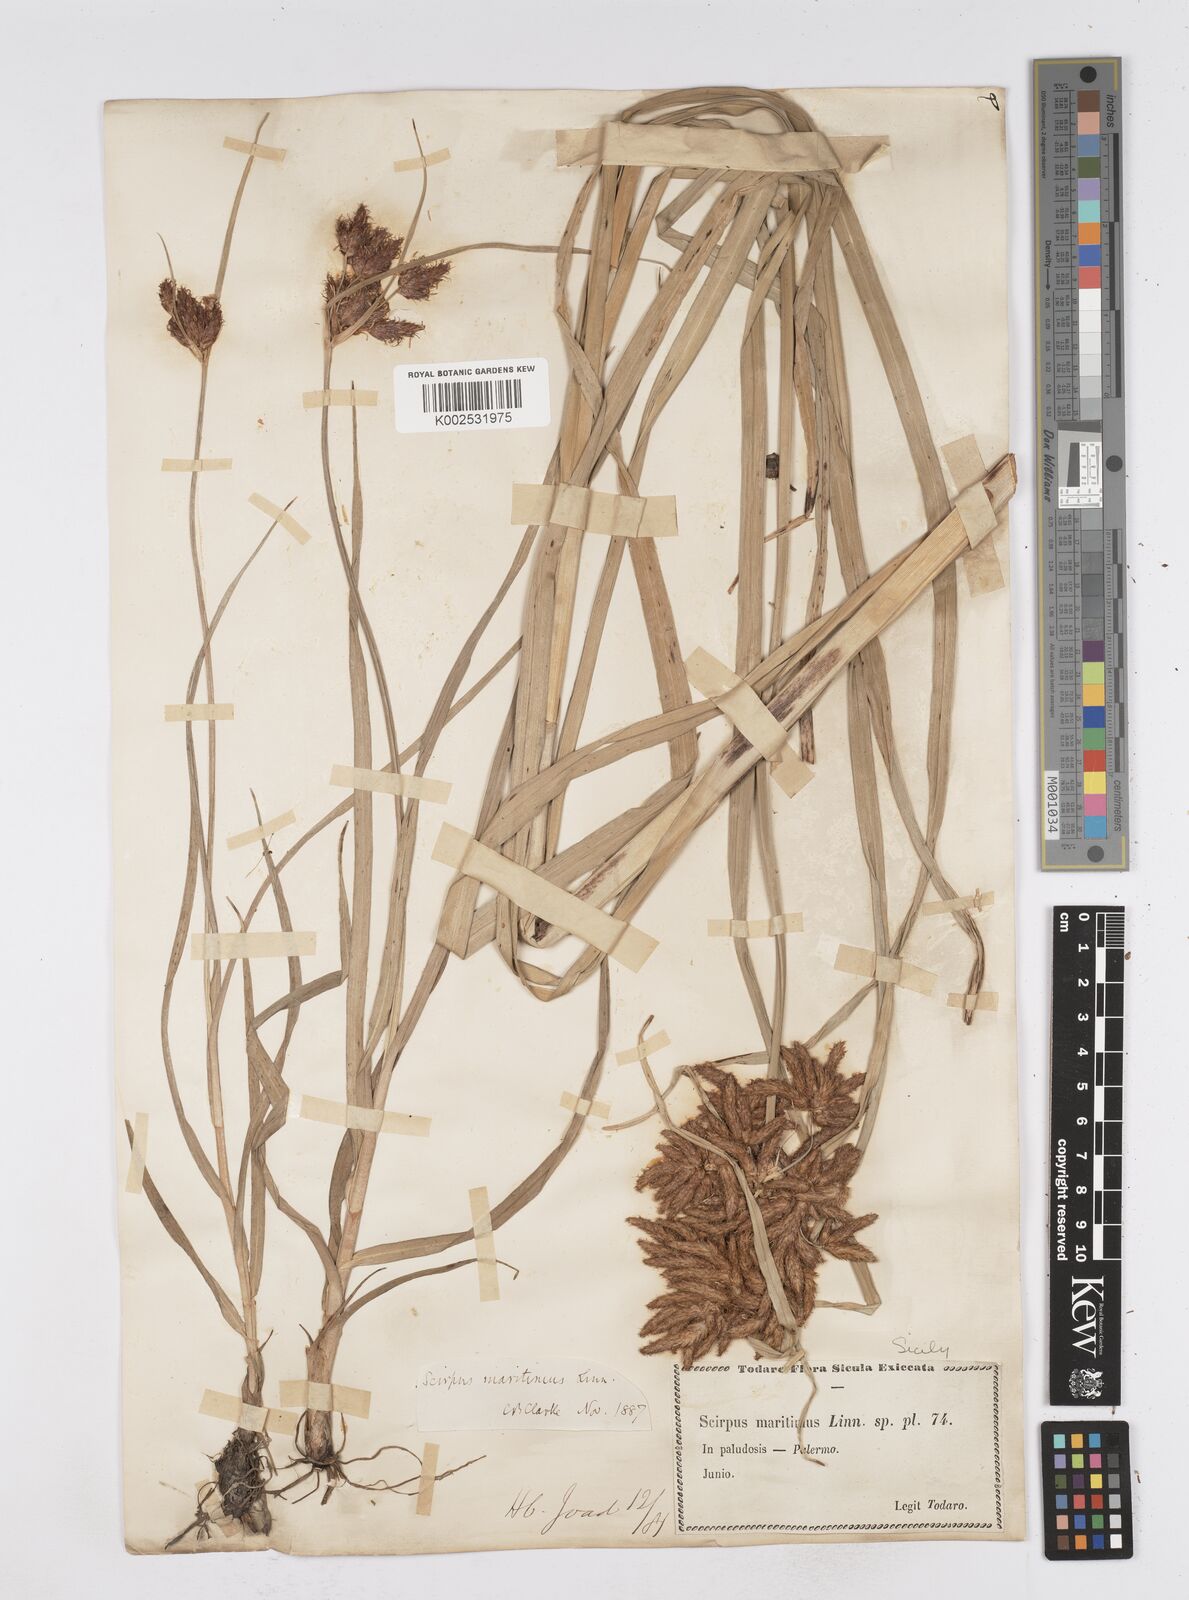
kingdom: Plantae
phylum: Tracheophyta
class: Liliopsida
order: Poales
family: Cyperaceae
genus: Bolboschoenus
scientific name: Bolboschoenus maritimus
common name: Sea club-rush
